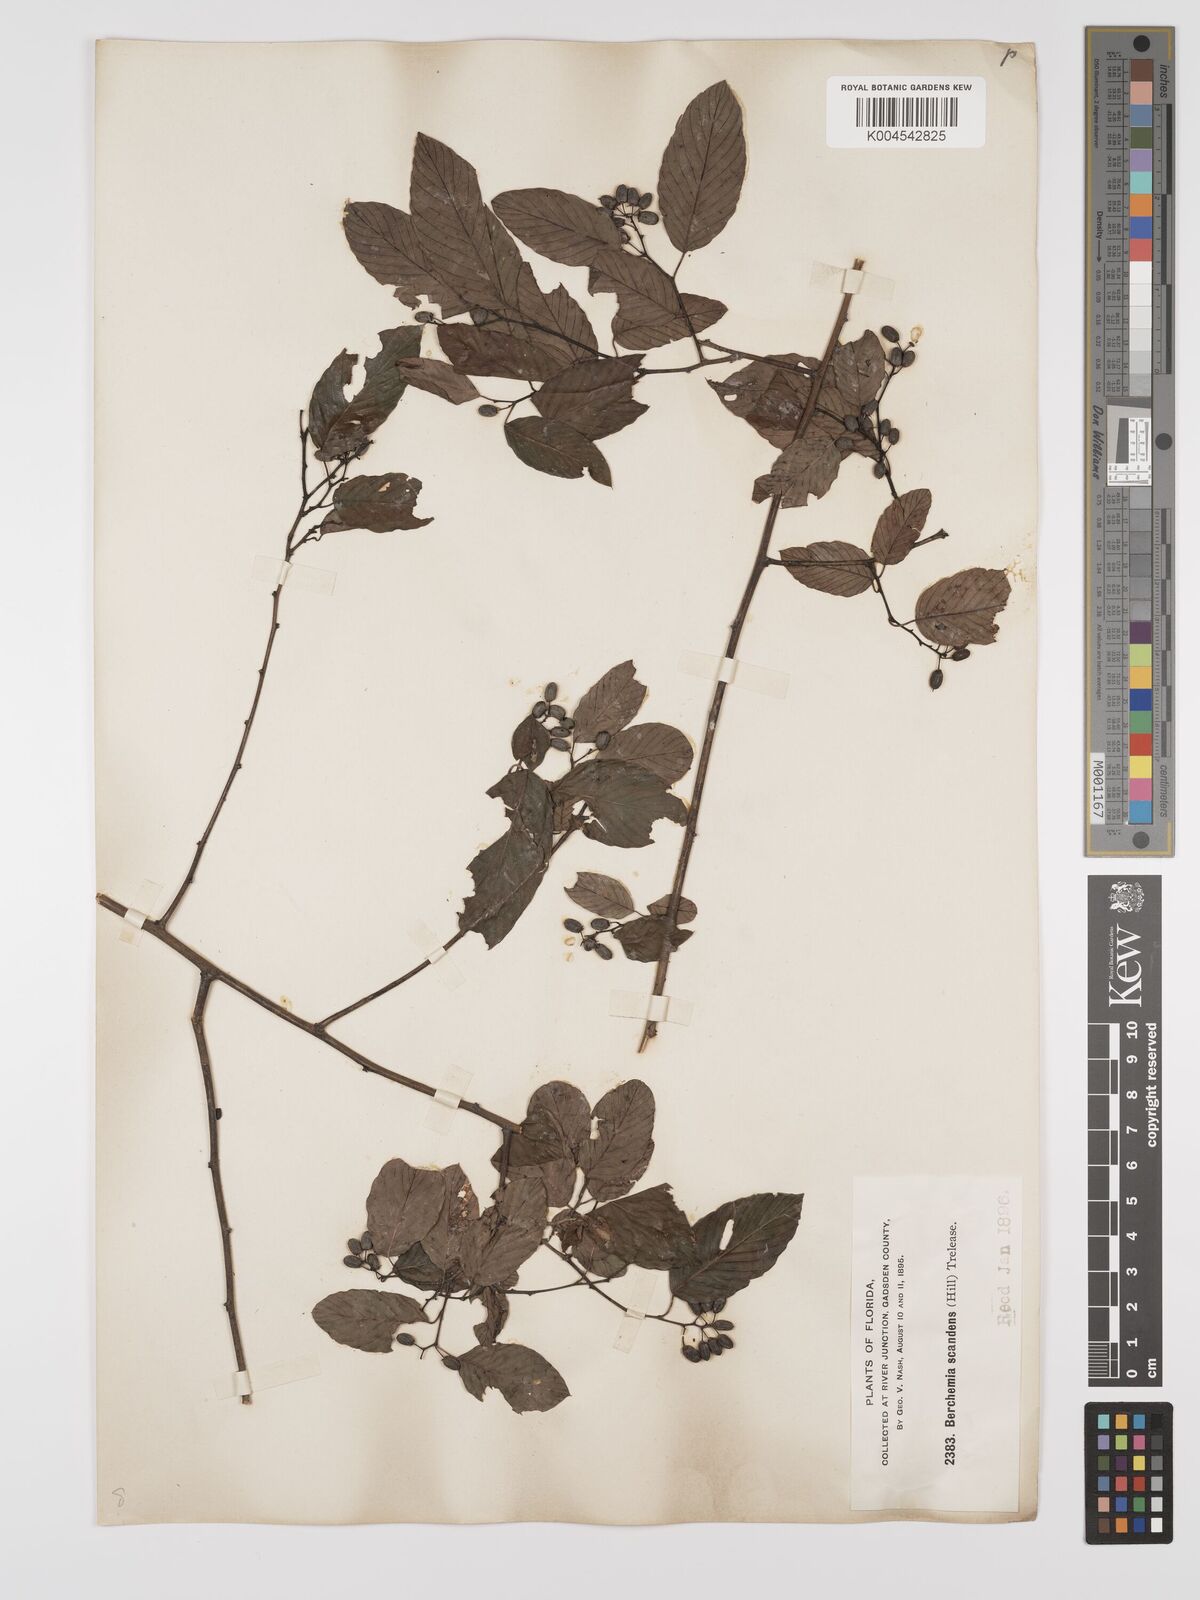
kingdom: Plantae
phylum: Tracheophyta
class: Magnoliopsida
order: Rosales
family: Rhamnaceae
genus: Berchemia
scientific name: Berchemia scandens
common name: Supplejack
